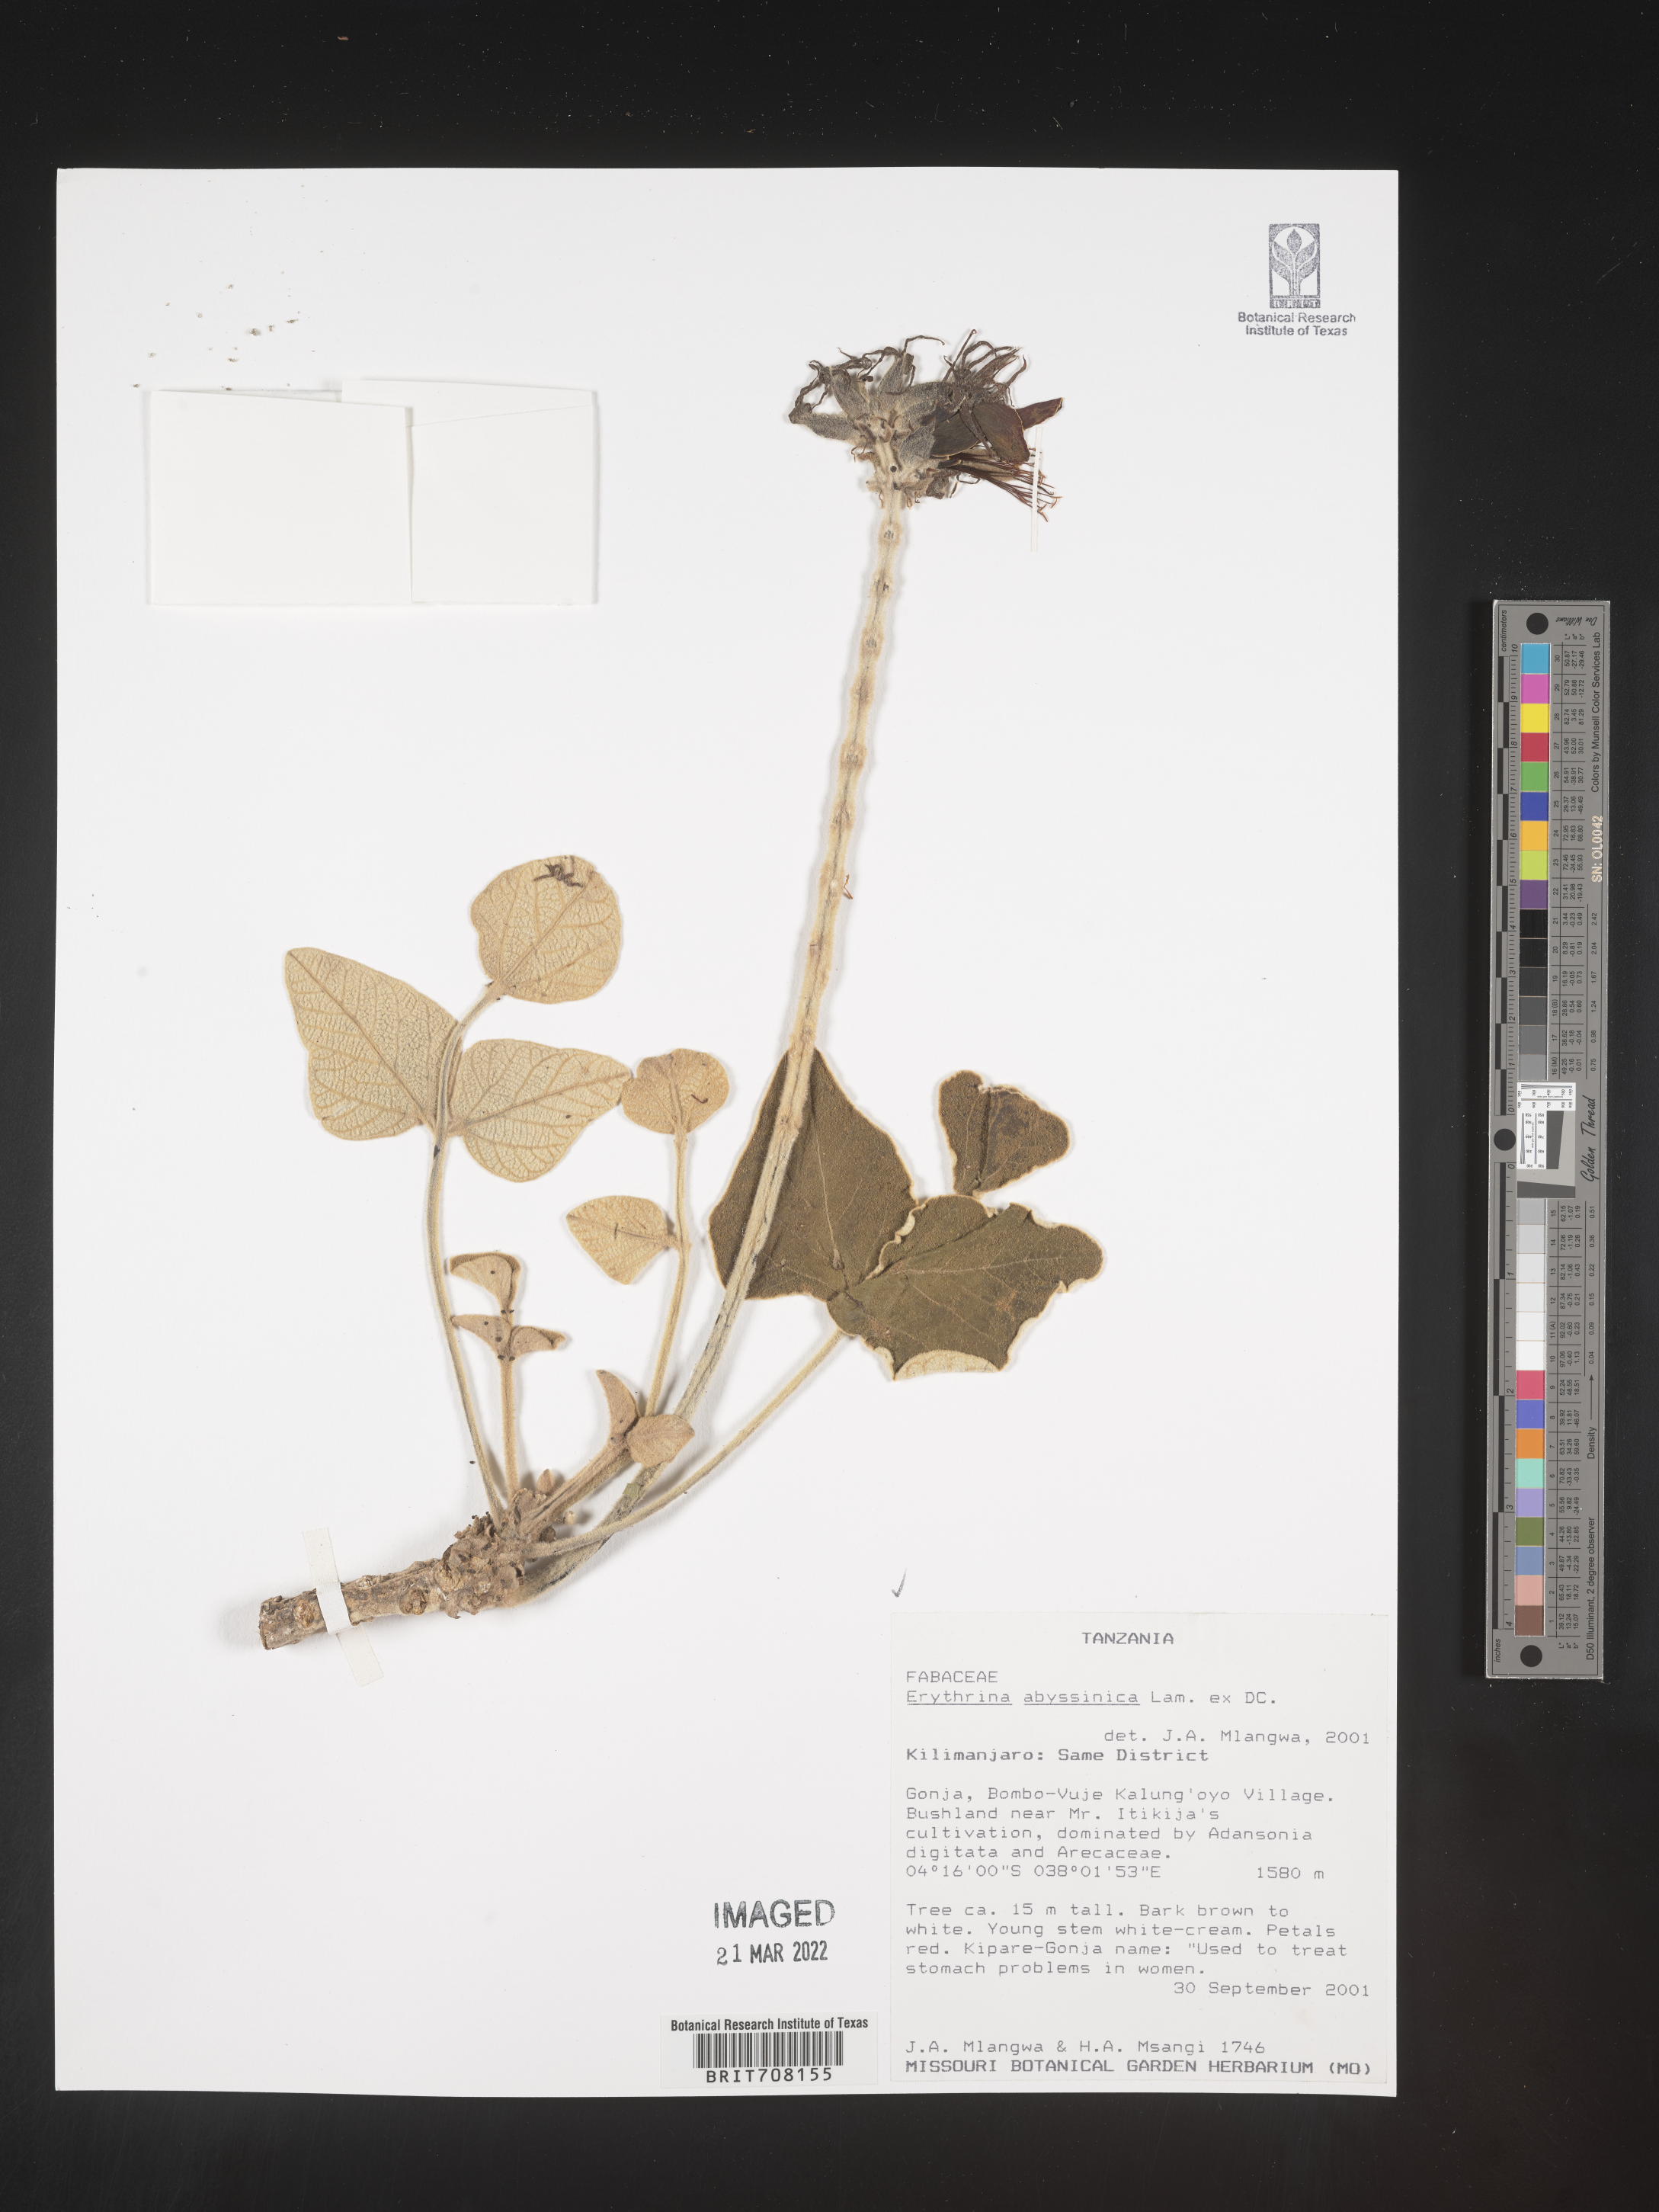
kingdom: Plantae
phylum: Tracheophyta
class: Magnoliopsida
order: Fabales
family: Fabaceae
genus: Erythrina
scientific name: Erythrina
